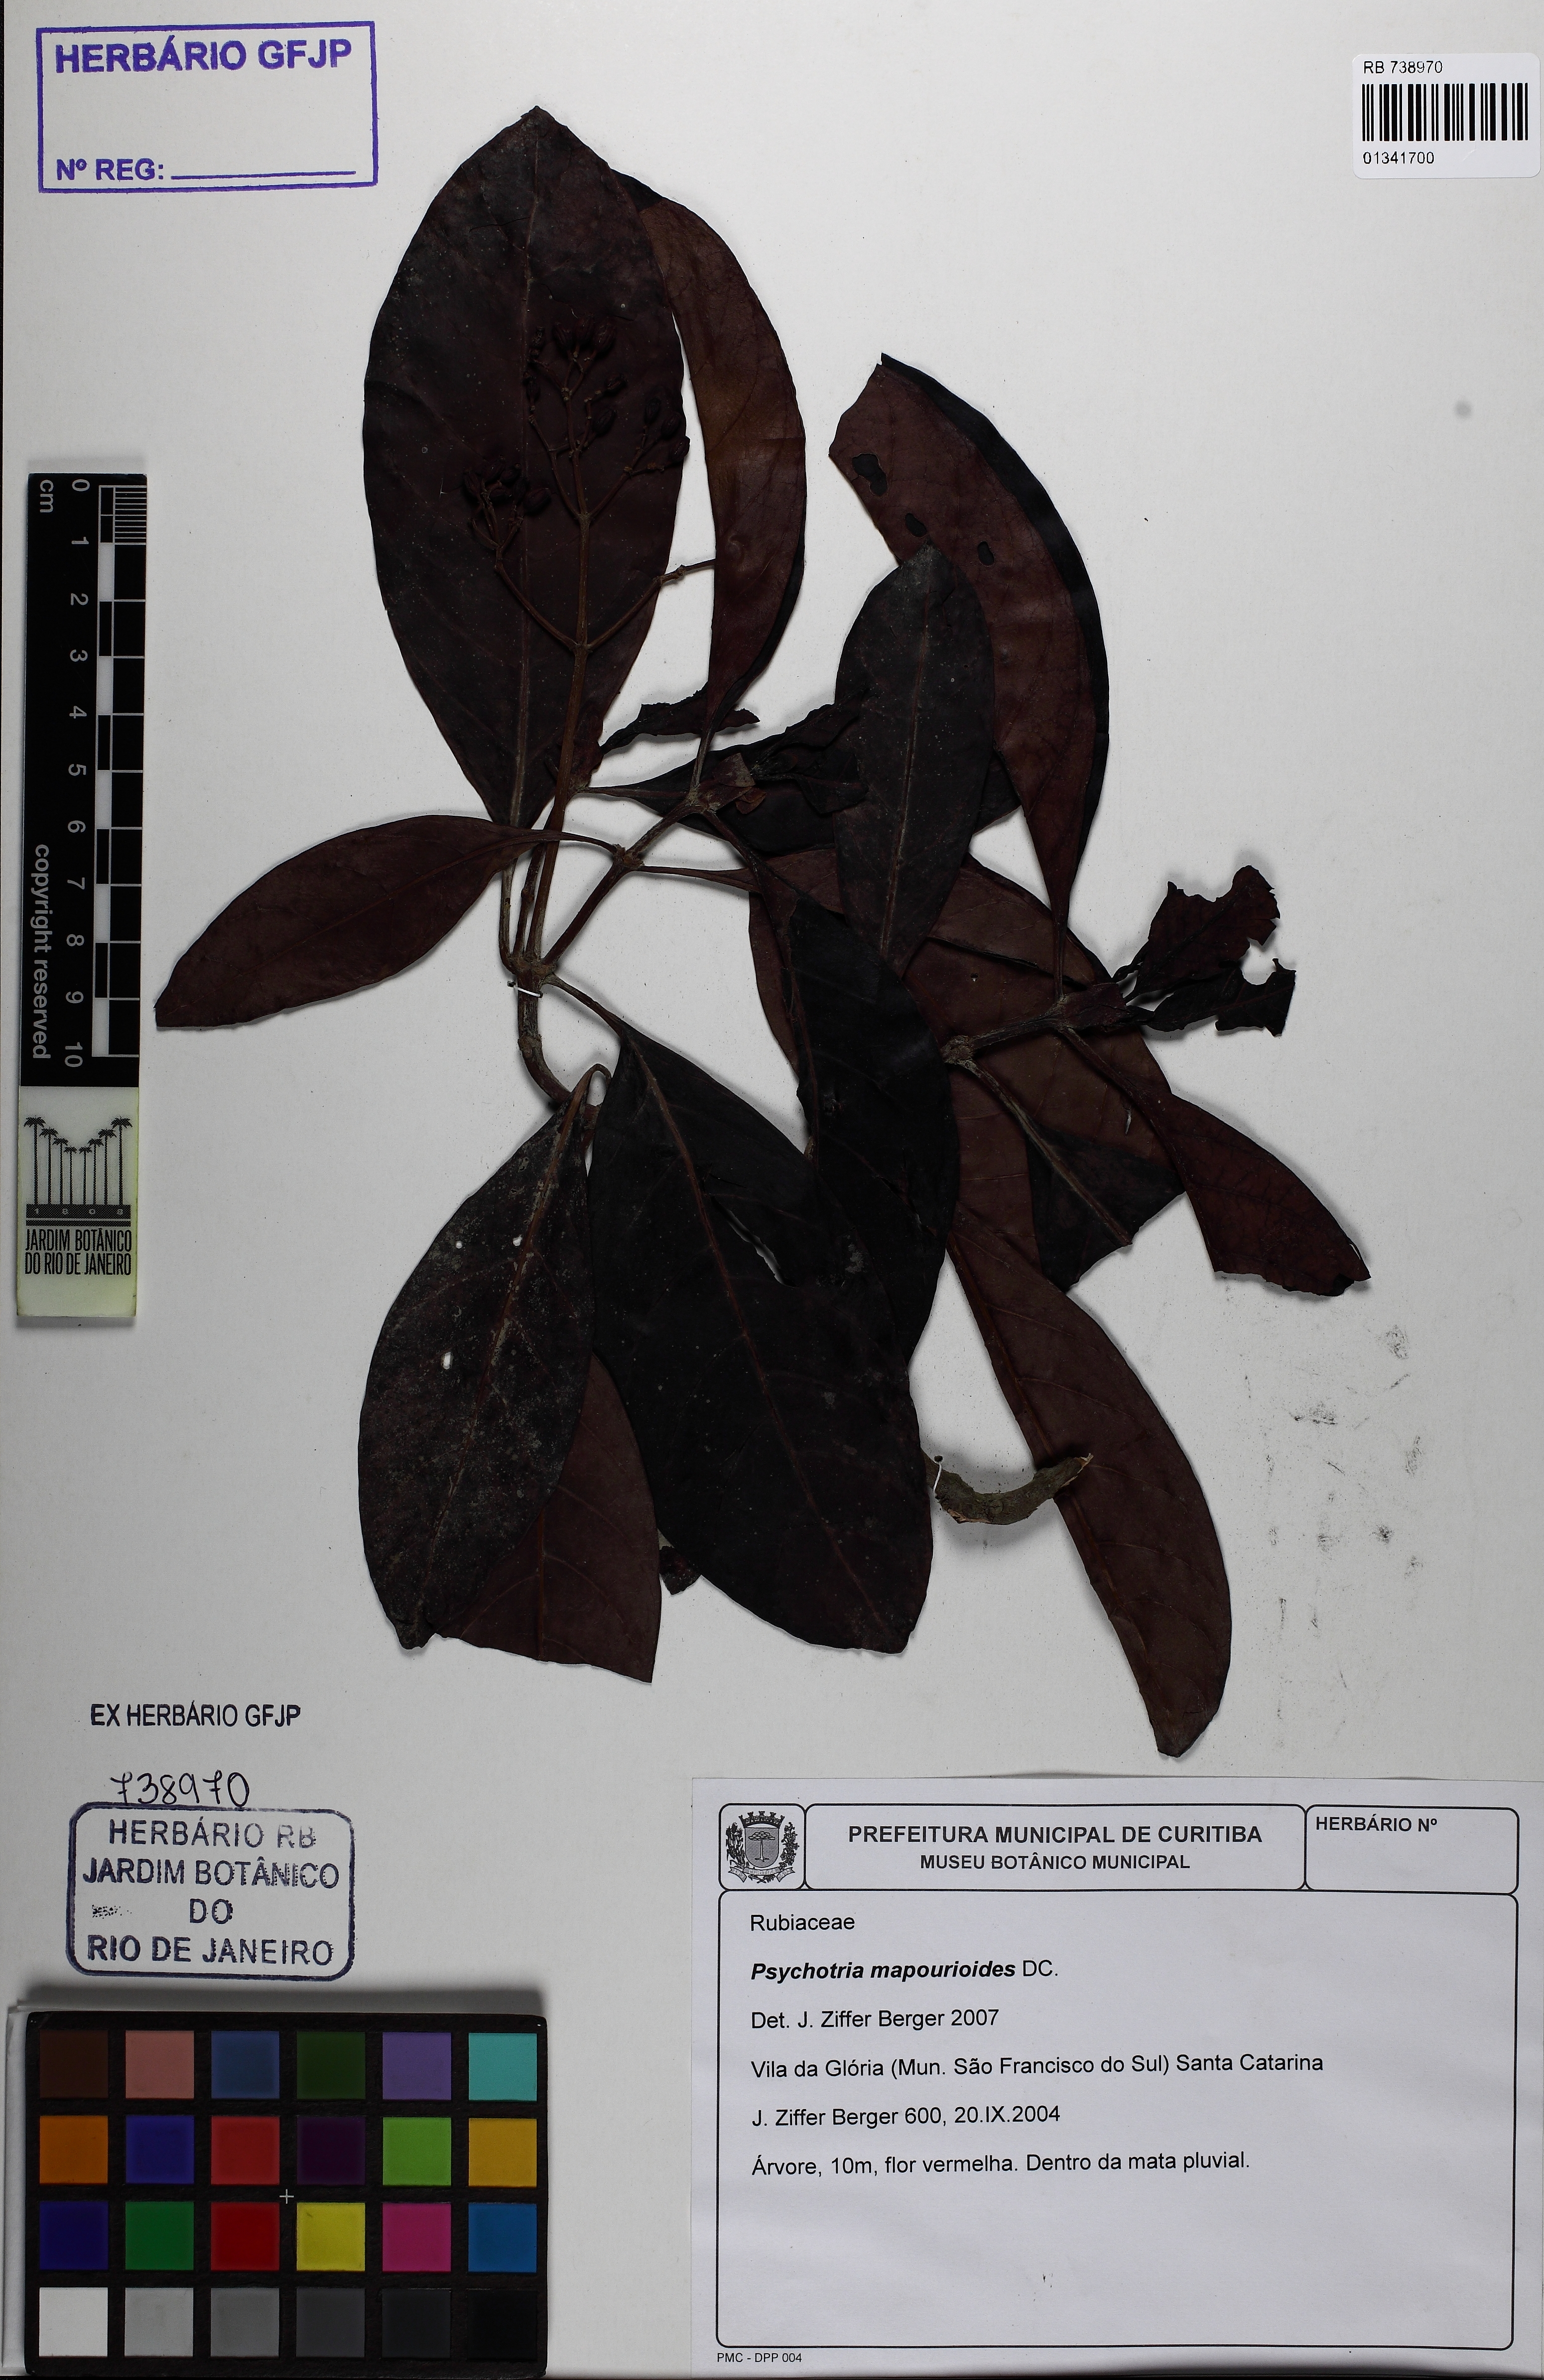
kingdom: Plantae
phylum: Tracheophyta
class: Magnoliopsida
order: Gentianales
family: Rubiaceae
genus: Psychotria
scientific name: Psychotria pedunculosa
